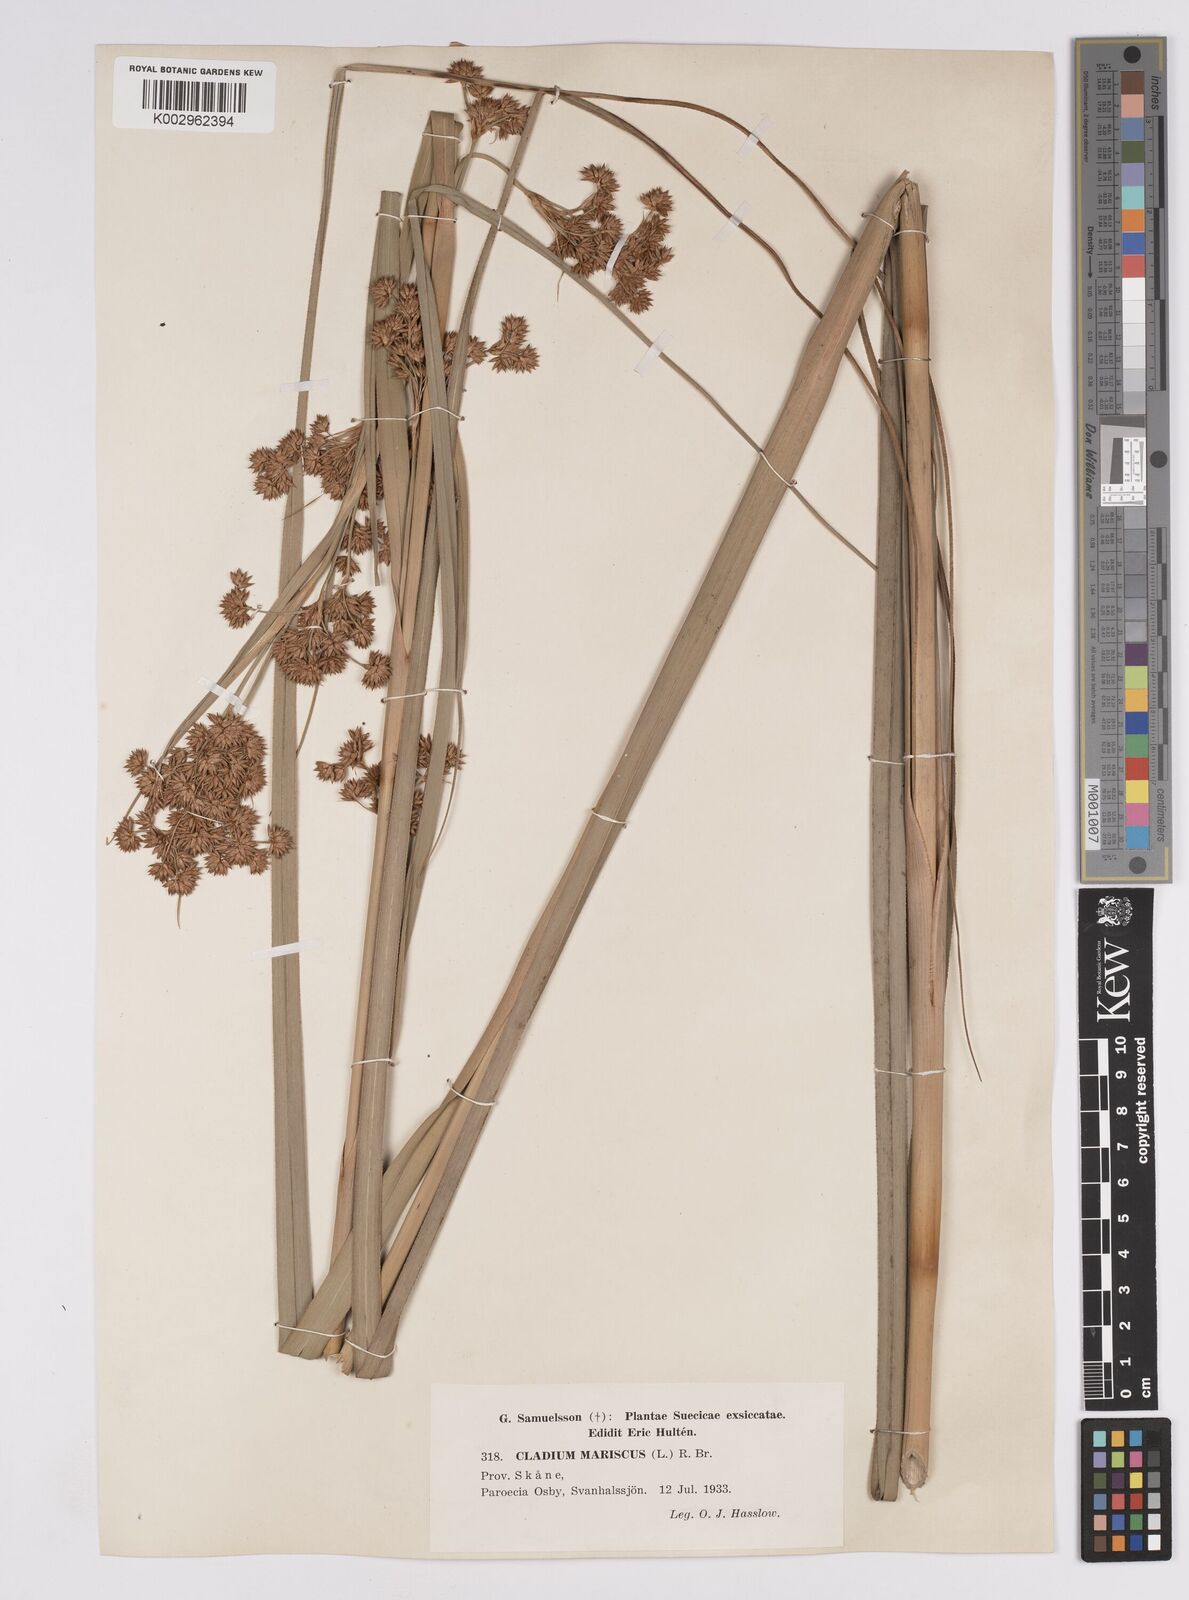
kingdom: Plantae
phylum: Tracheophyta
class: Liliopsida
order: Poales
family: Cyperaceae
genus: Cladium
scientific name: Cladium mariscus
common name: Great fen-sedge
